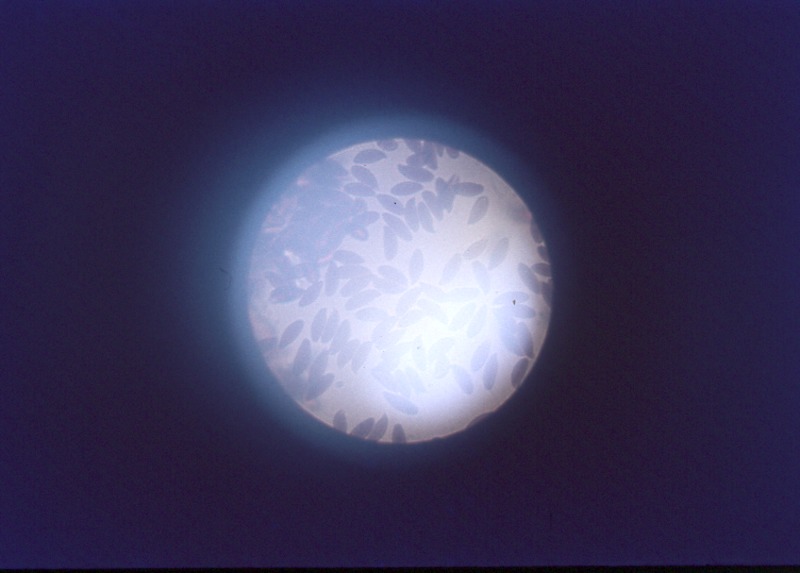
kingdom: Fungi
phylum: Basidiomycota
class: Agaricomycetes
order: Agaricales
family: Agaricaceae
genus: Lepiota
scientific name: Lepiota clypeolaria
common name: Shield dapperling
